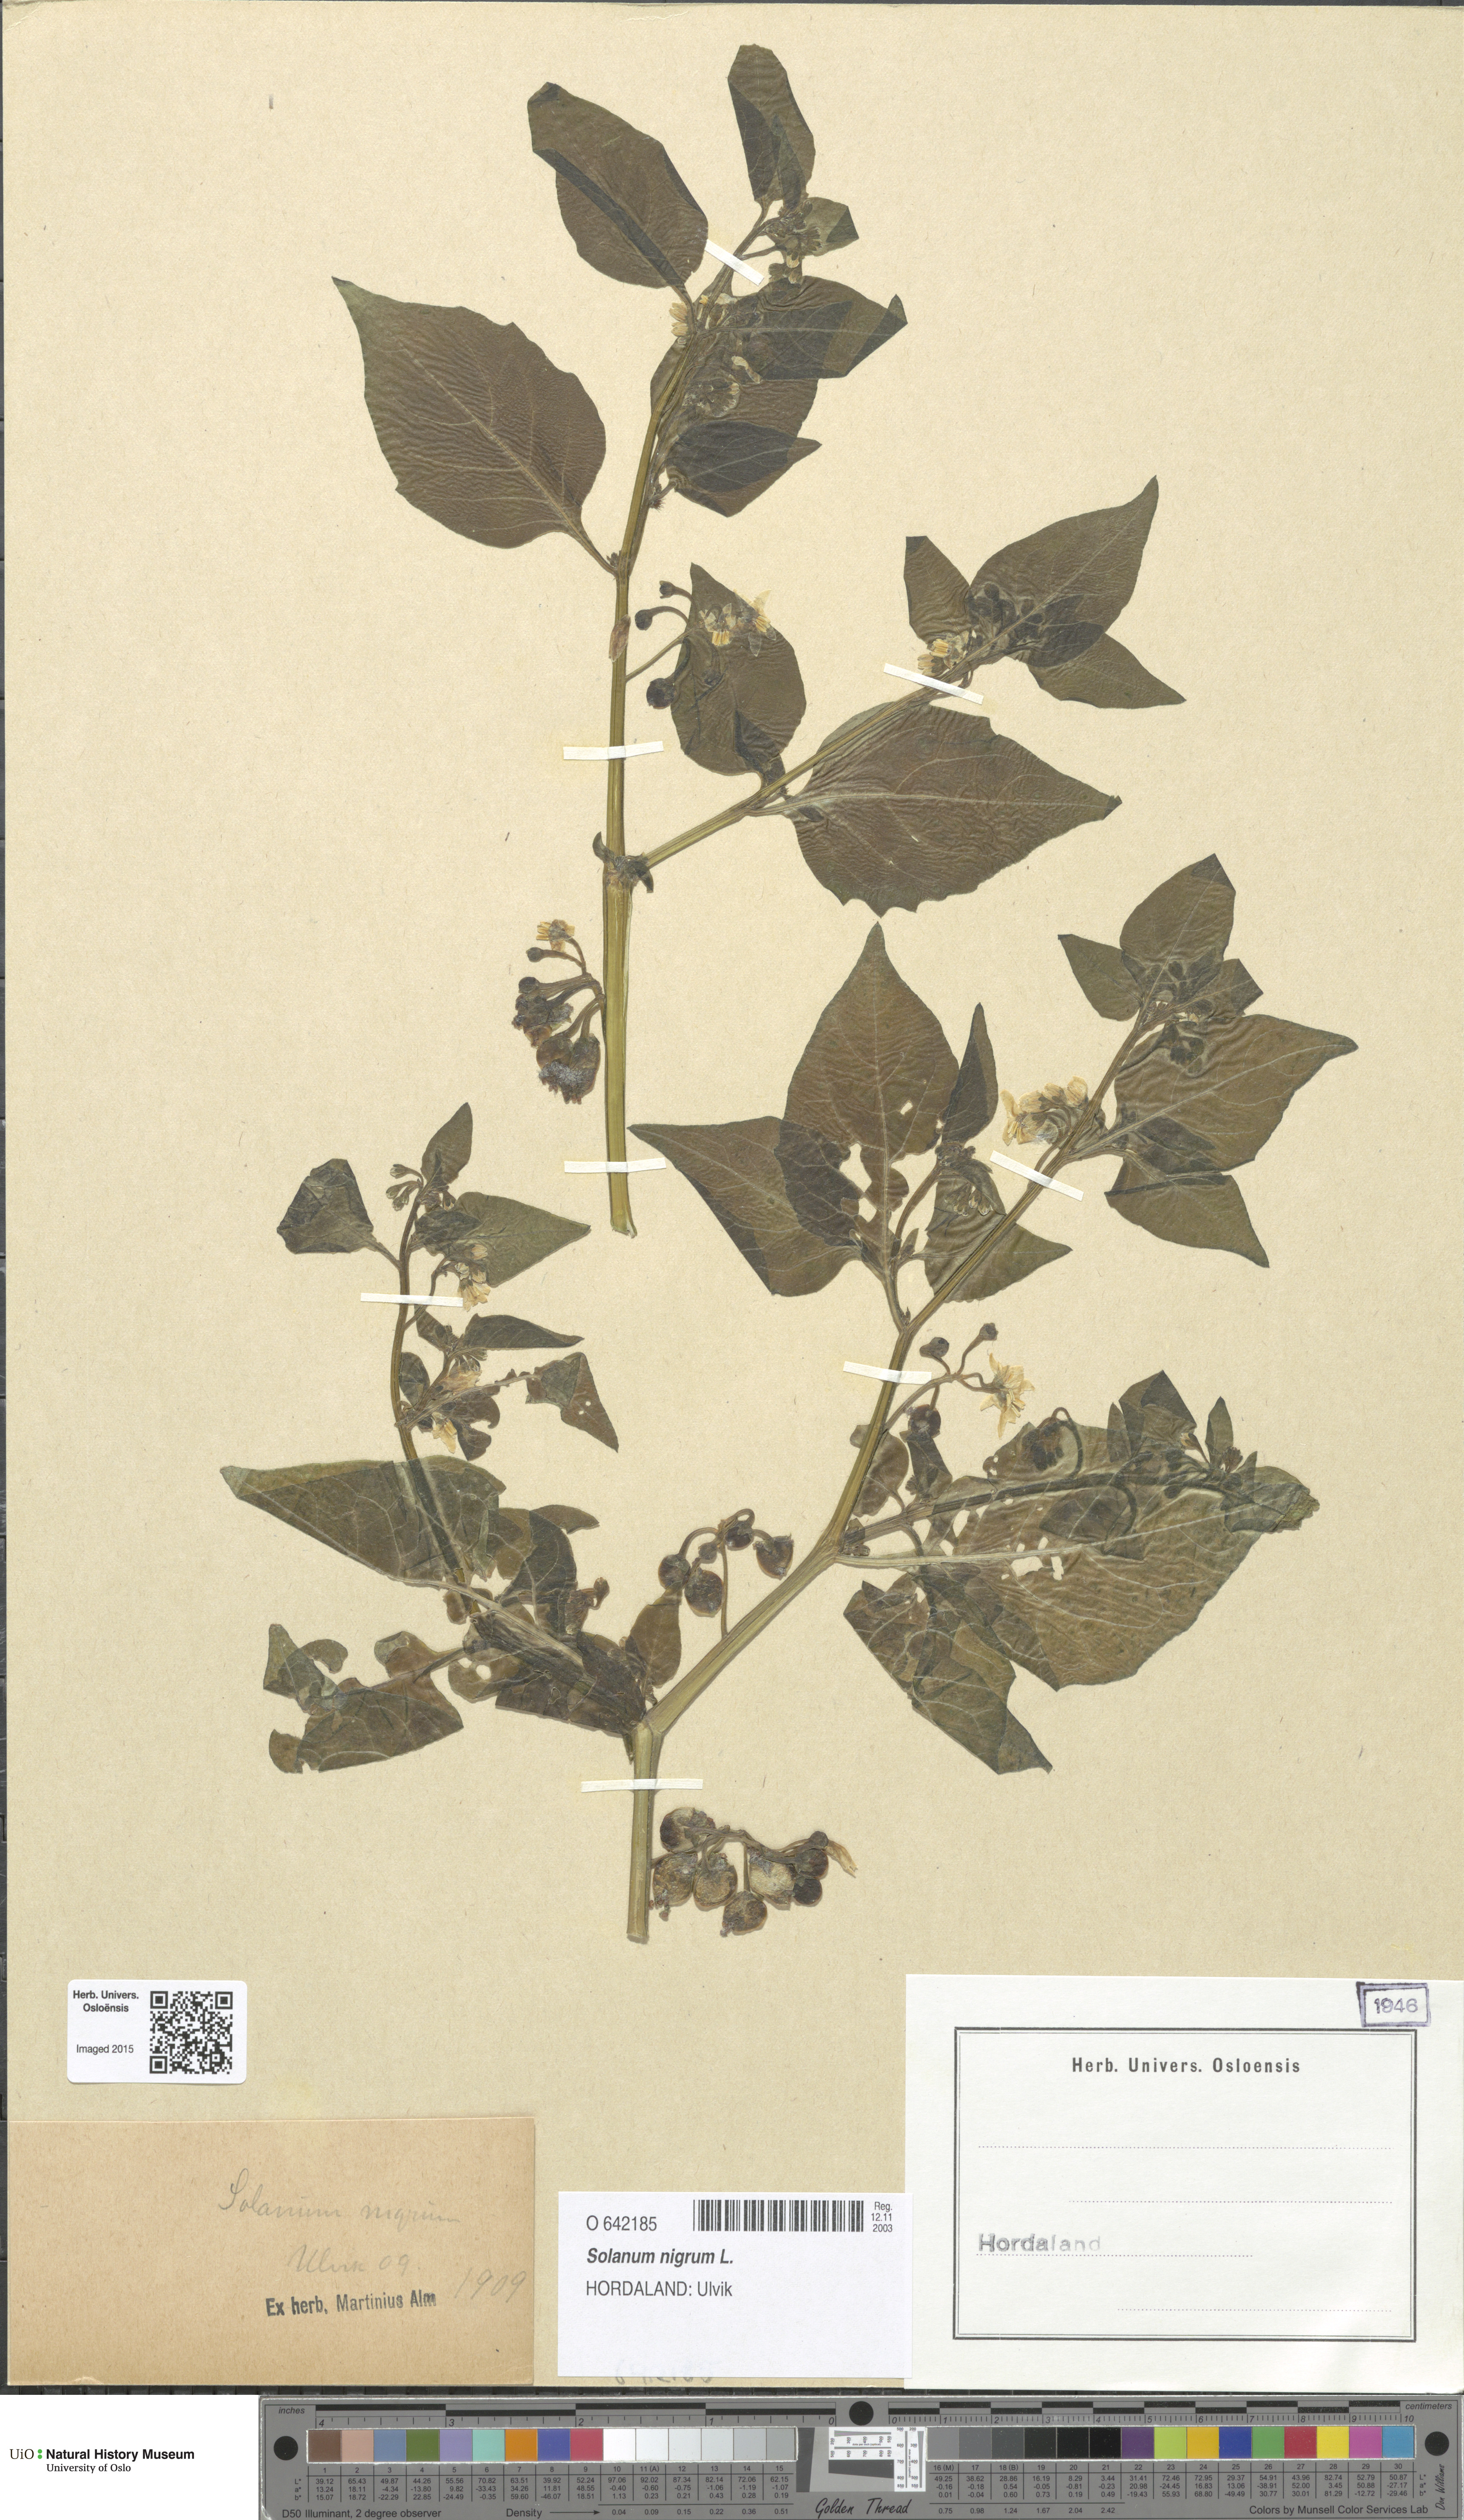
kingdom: Plantae
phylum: Tracheophyta
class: Magnoliopsida
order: Solanales
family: Solanaceae
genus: Solanum
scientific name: Solanum nigrum
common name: Black nightshade
